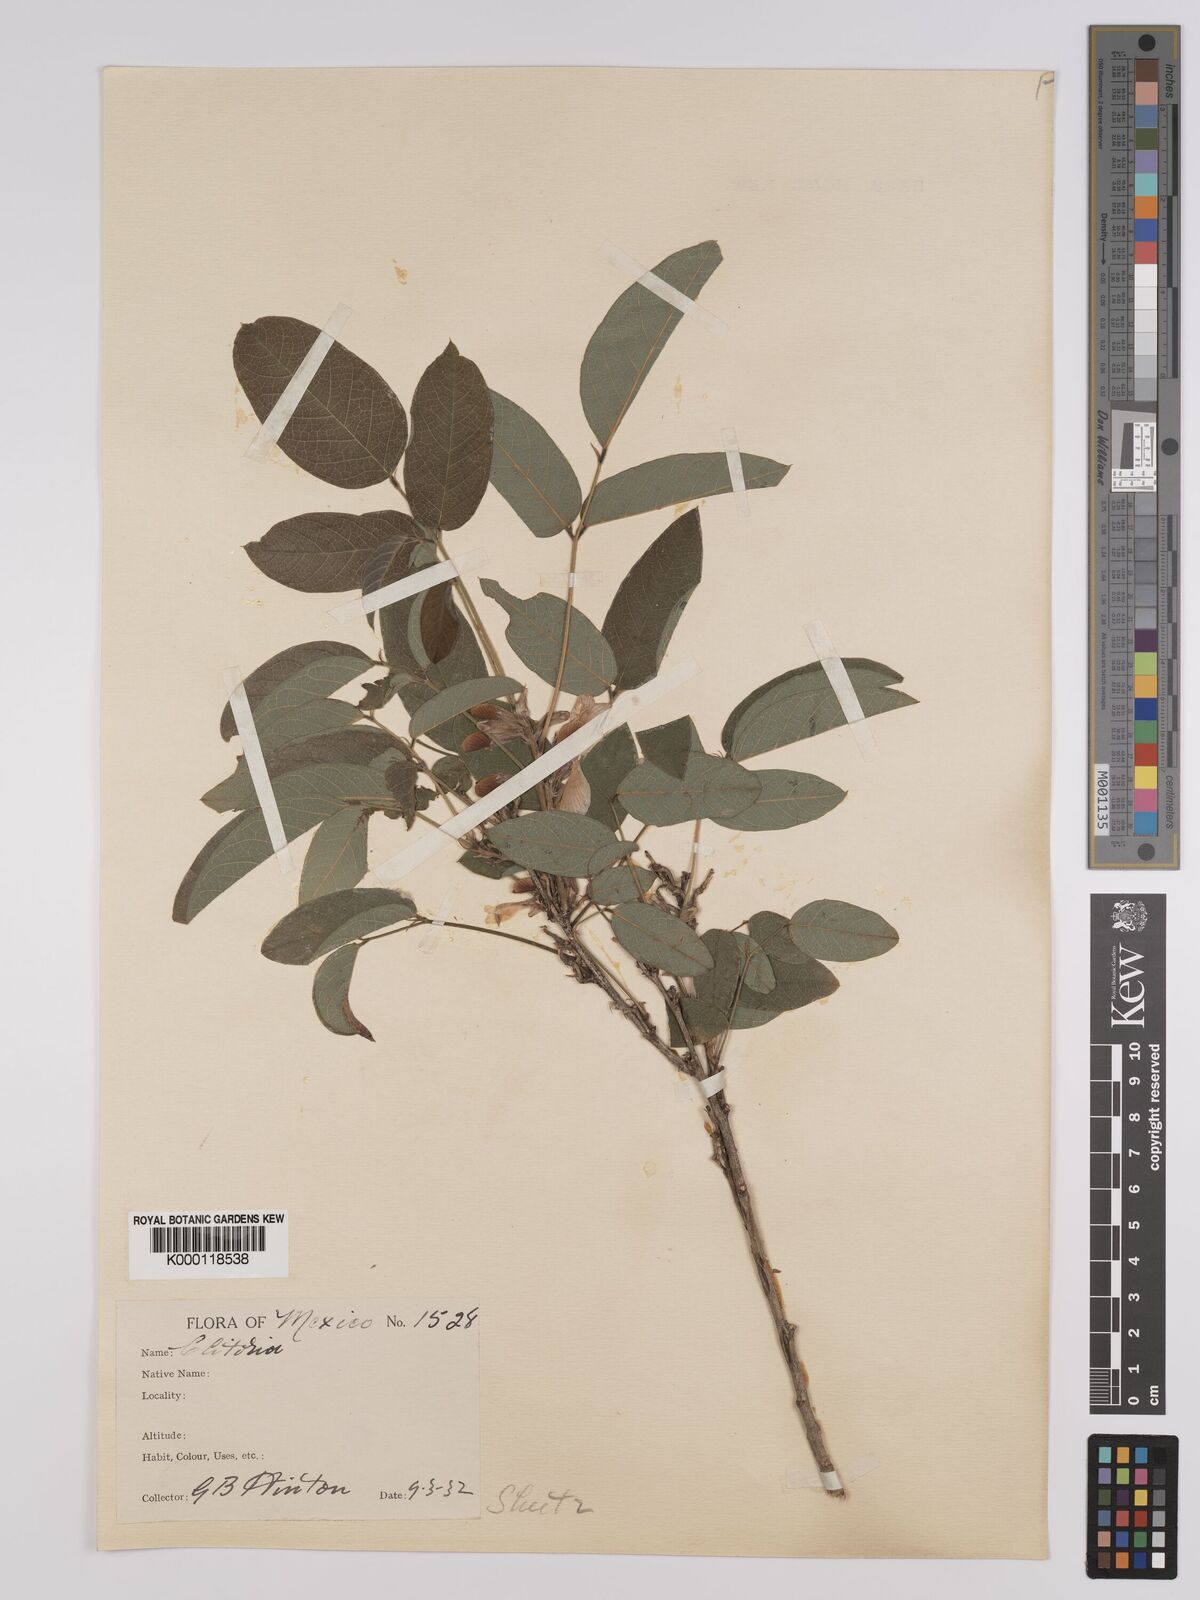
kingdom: Plantae
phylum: Tracheophyta
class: Magnoliopsida
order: Fabales
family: Fabaceae
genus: Clitoria
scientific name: Clitoria polystachya
